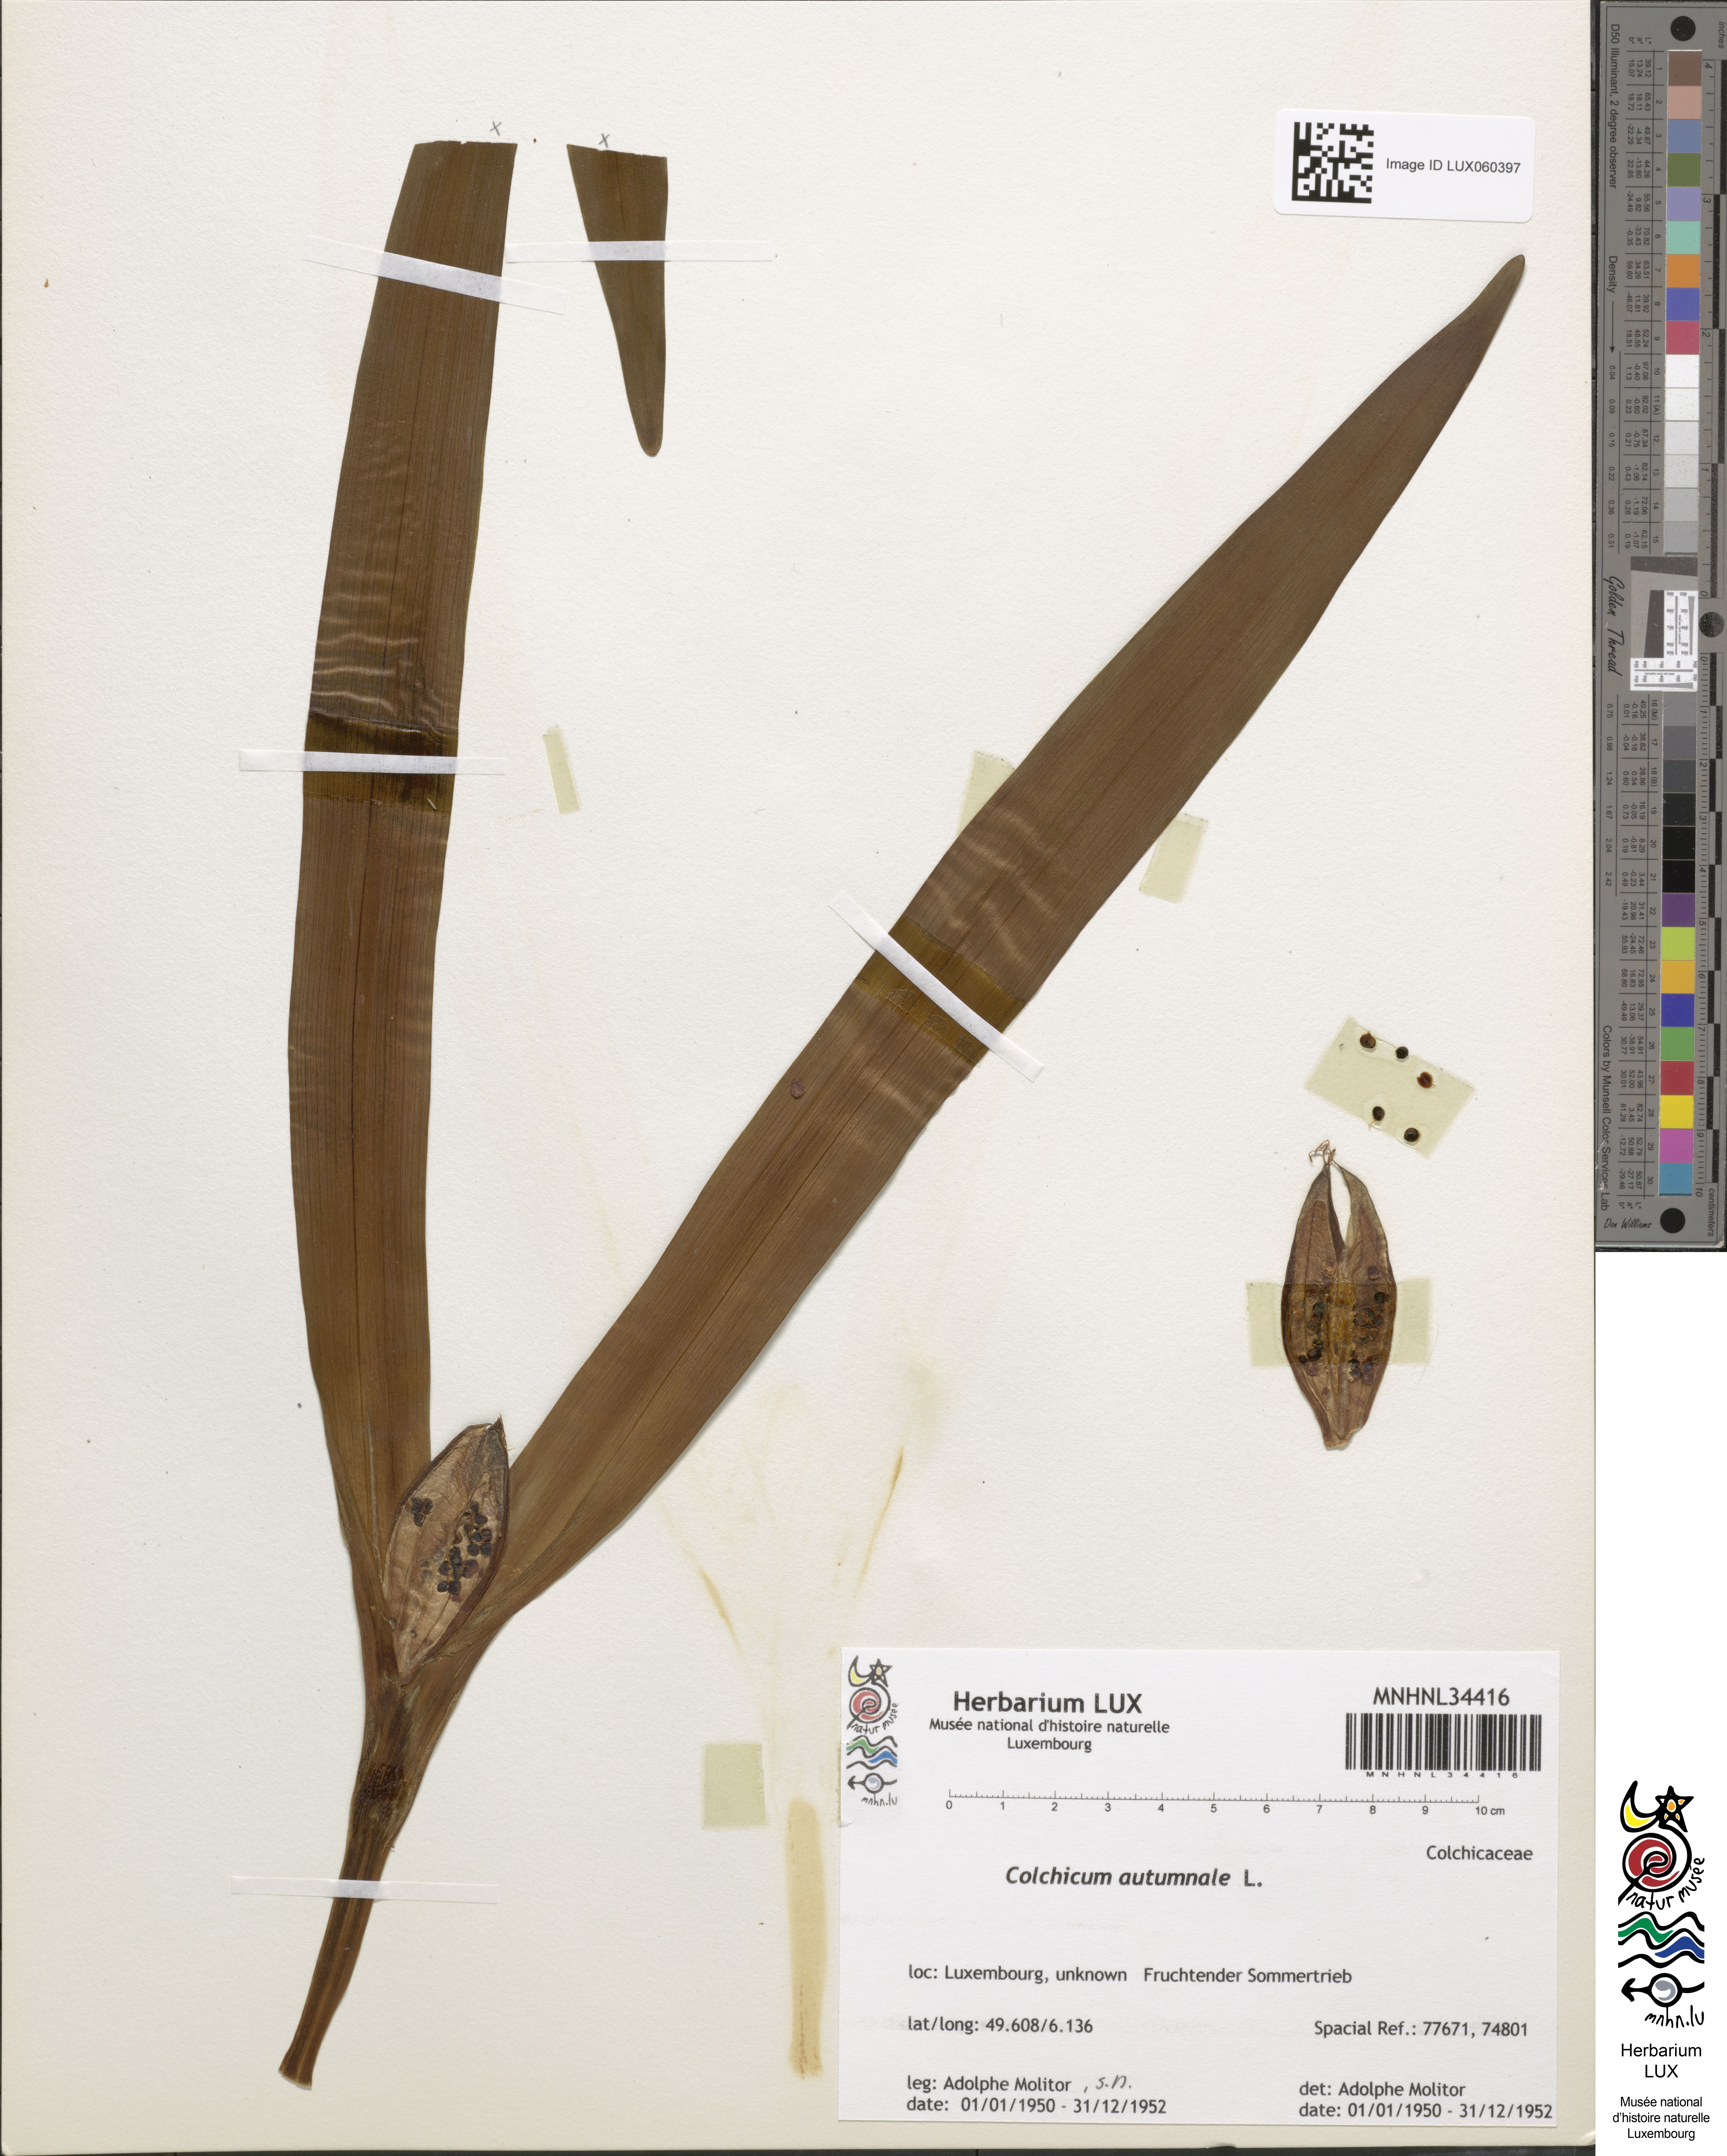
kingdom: Plantae
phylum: Tracheophyta
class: Liliopsida
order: Liliales
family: Colchicaceae
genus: Colchicum
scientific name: Colchicum autumnale
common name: Autumn crocus
